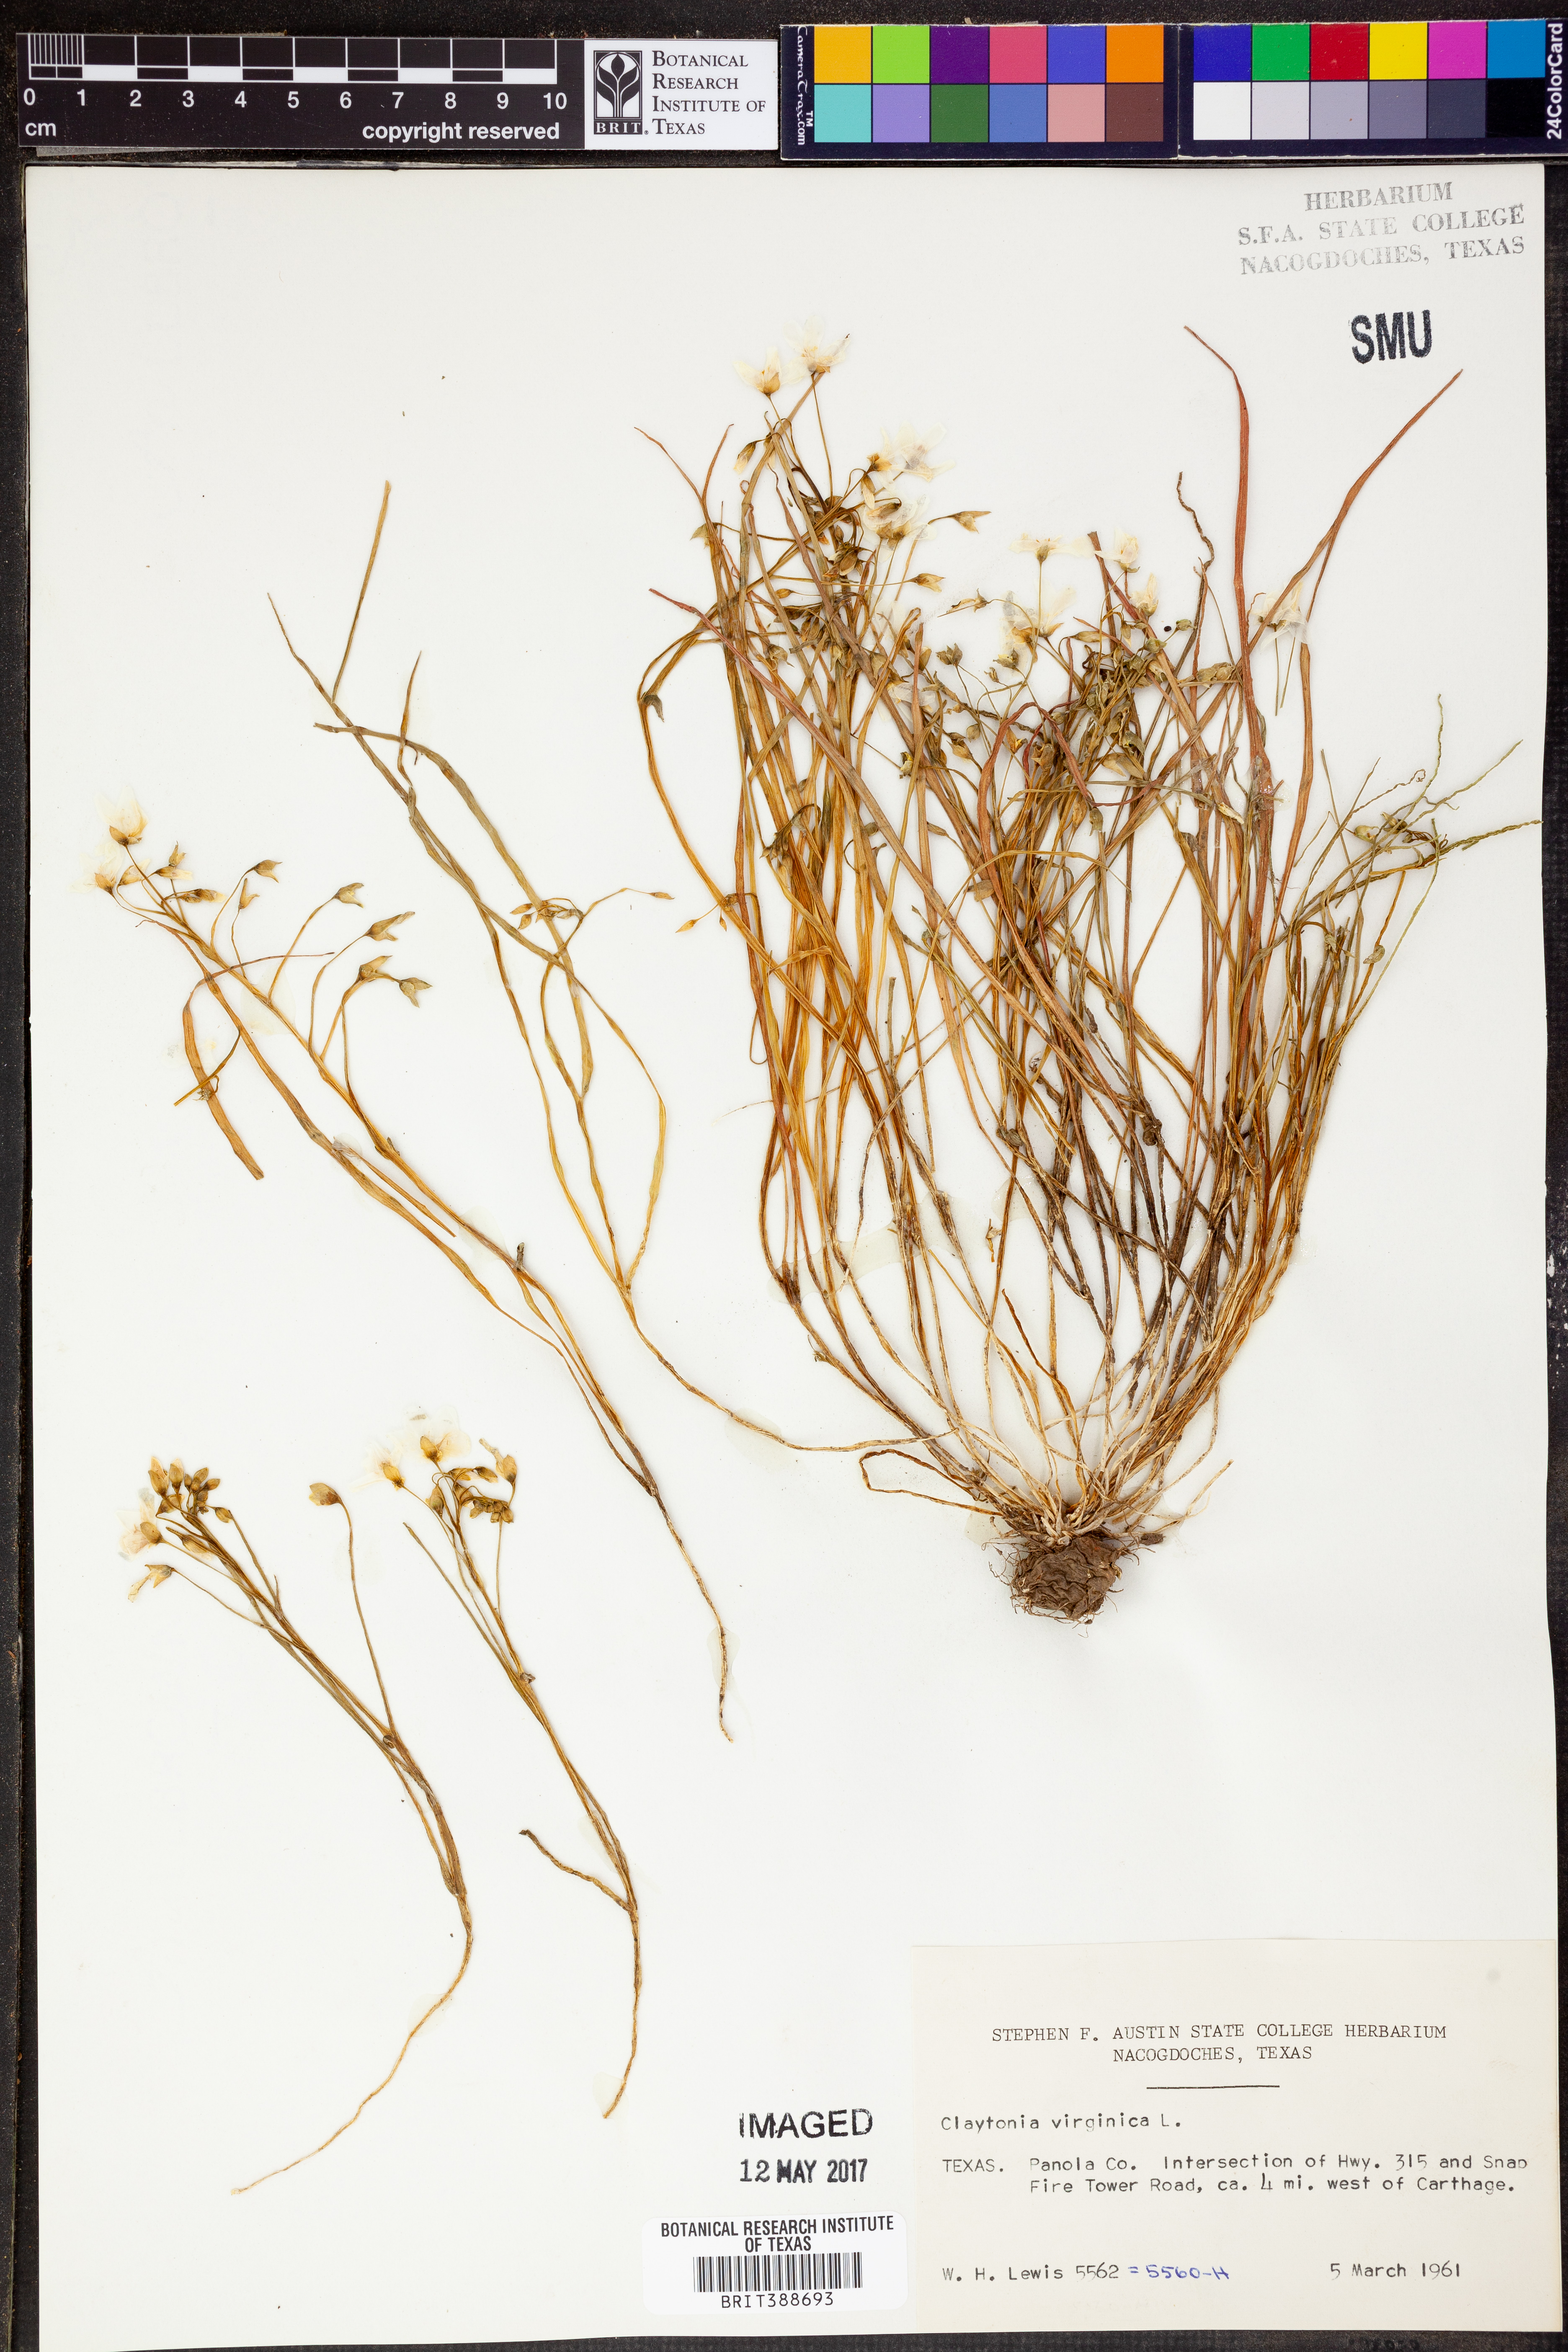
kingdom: Plantae
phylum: Tracheophyta
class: Magnoliopsida
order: Caryophyllales
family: Montiaceae
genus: Claytonia
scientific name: Claytonia virginica
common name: Virginia springbeauty
